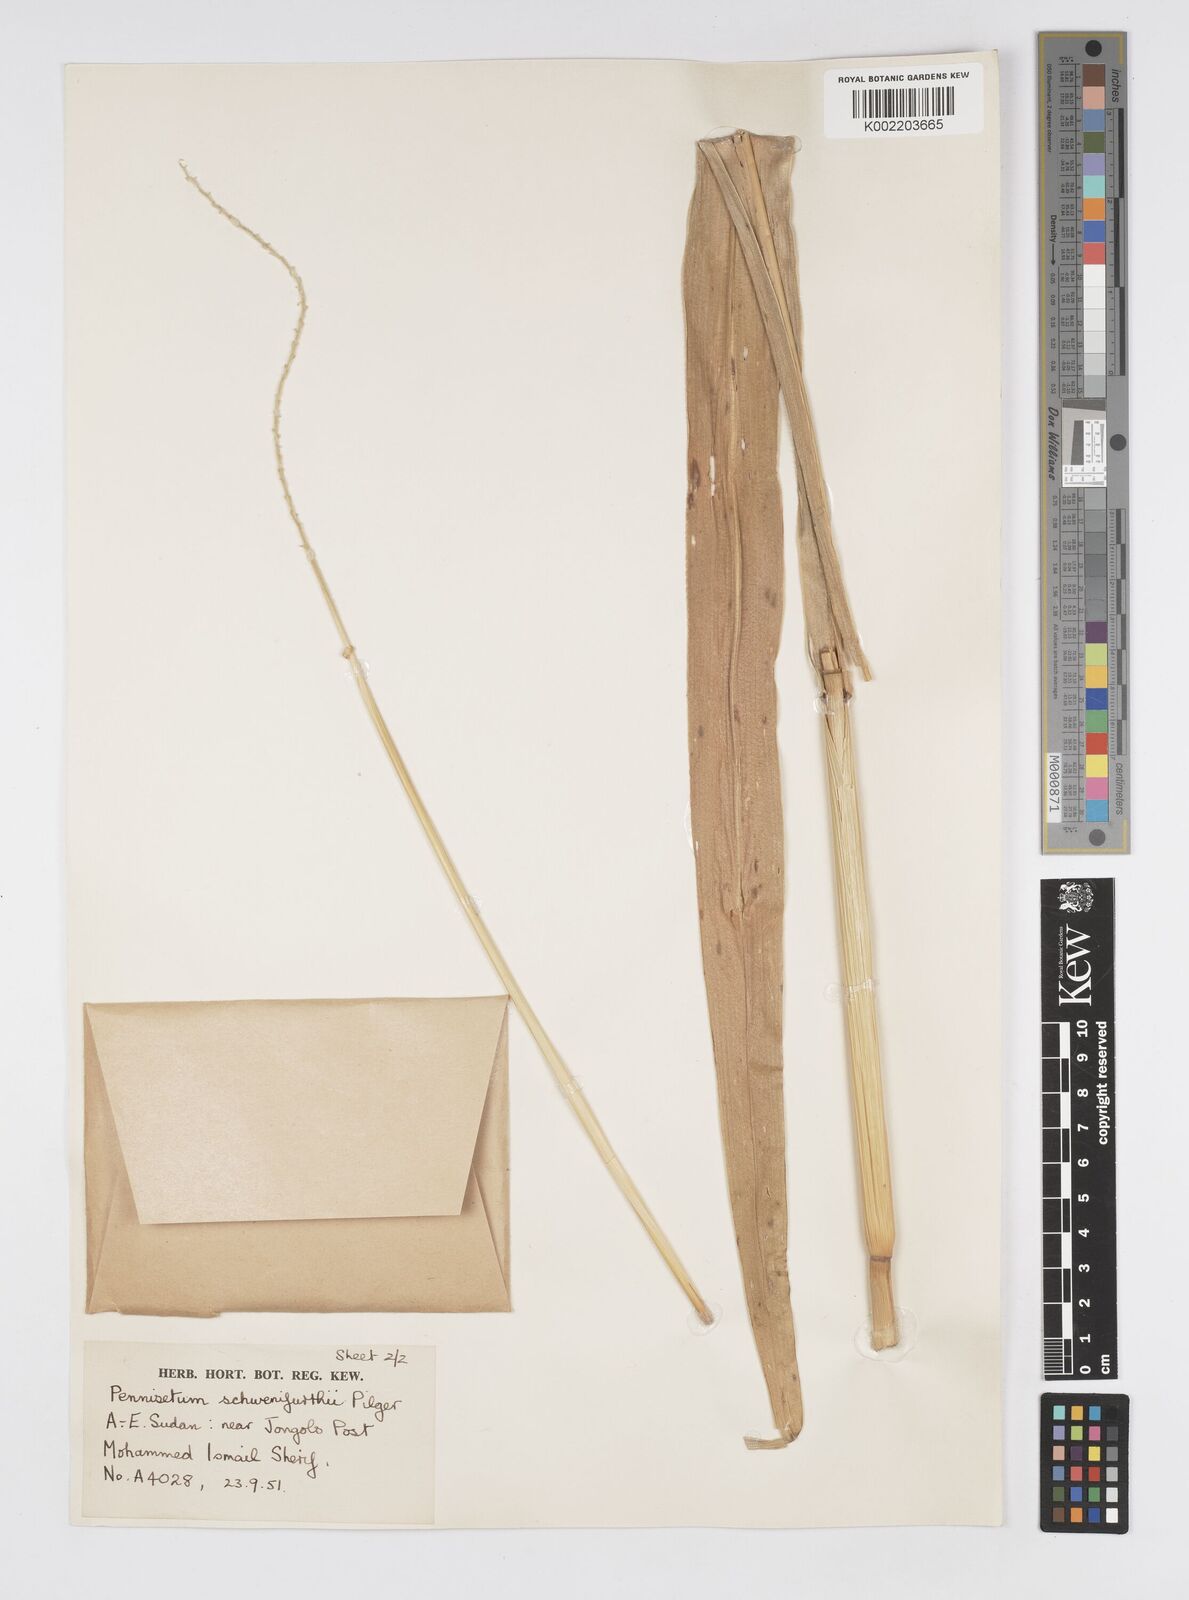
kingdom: Plantae
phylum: Tracheophyta
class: Liliopsida
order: Poales
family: Poaceae
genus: Cenchrus
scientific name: Cenchrus schweinfurthii
